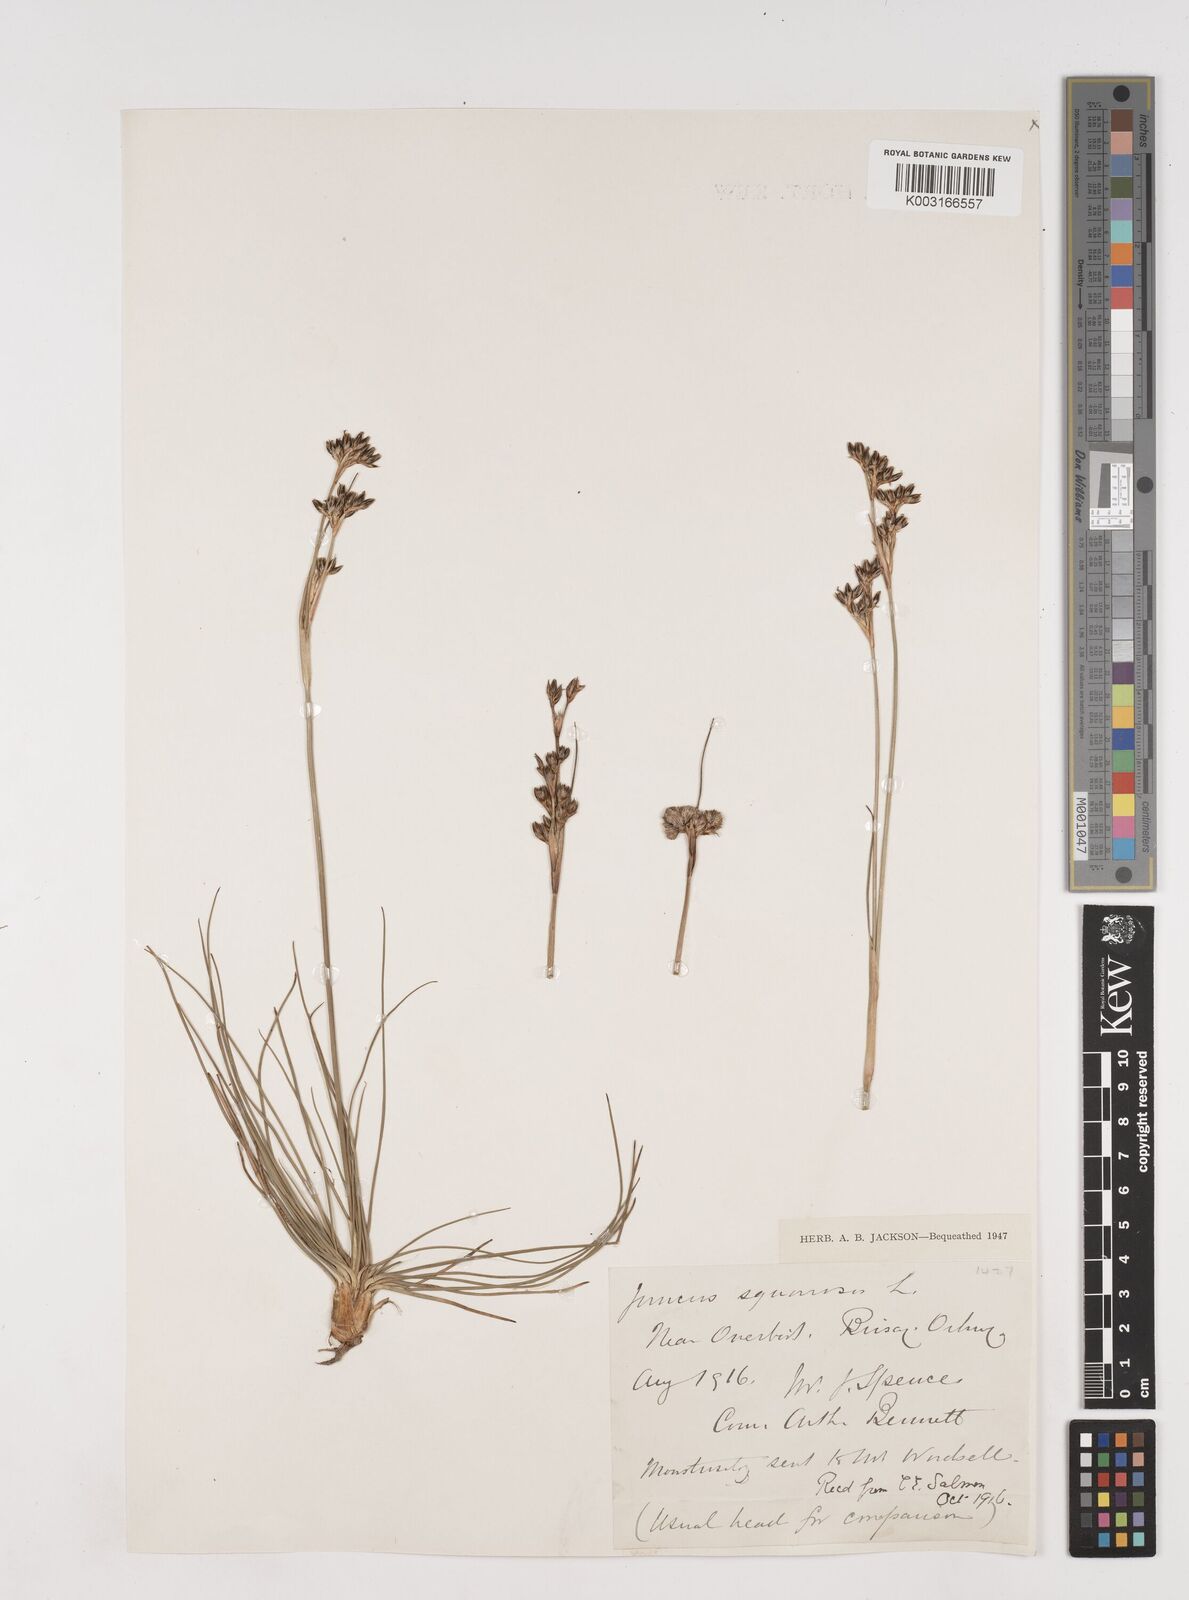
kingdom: Plantae
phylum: Tracheophyta
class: Liliopsida
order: Poales
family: Juncaceae
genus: Juncus
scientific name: Juncus squarrosus
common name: Heath rush
